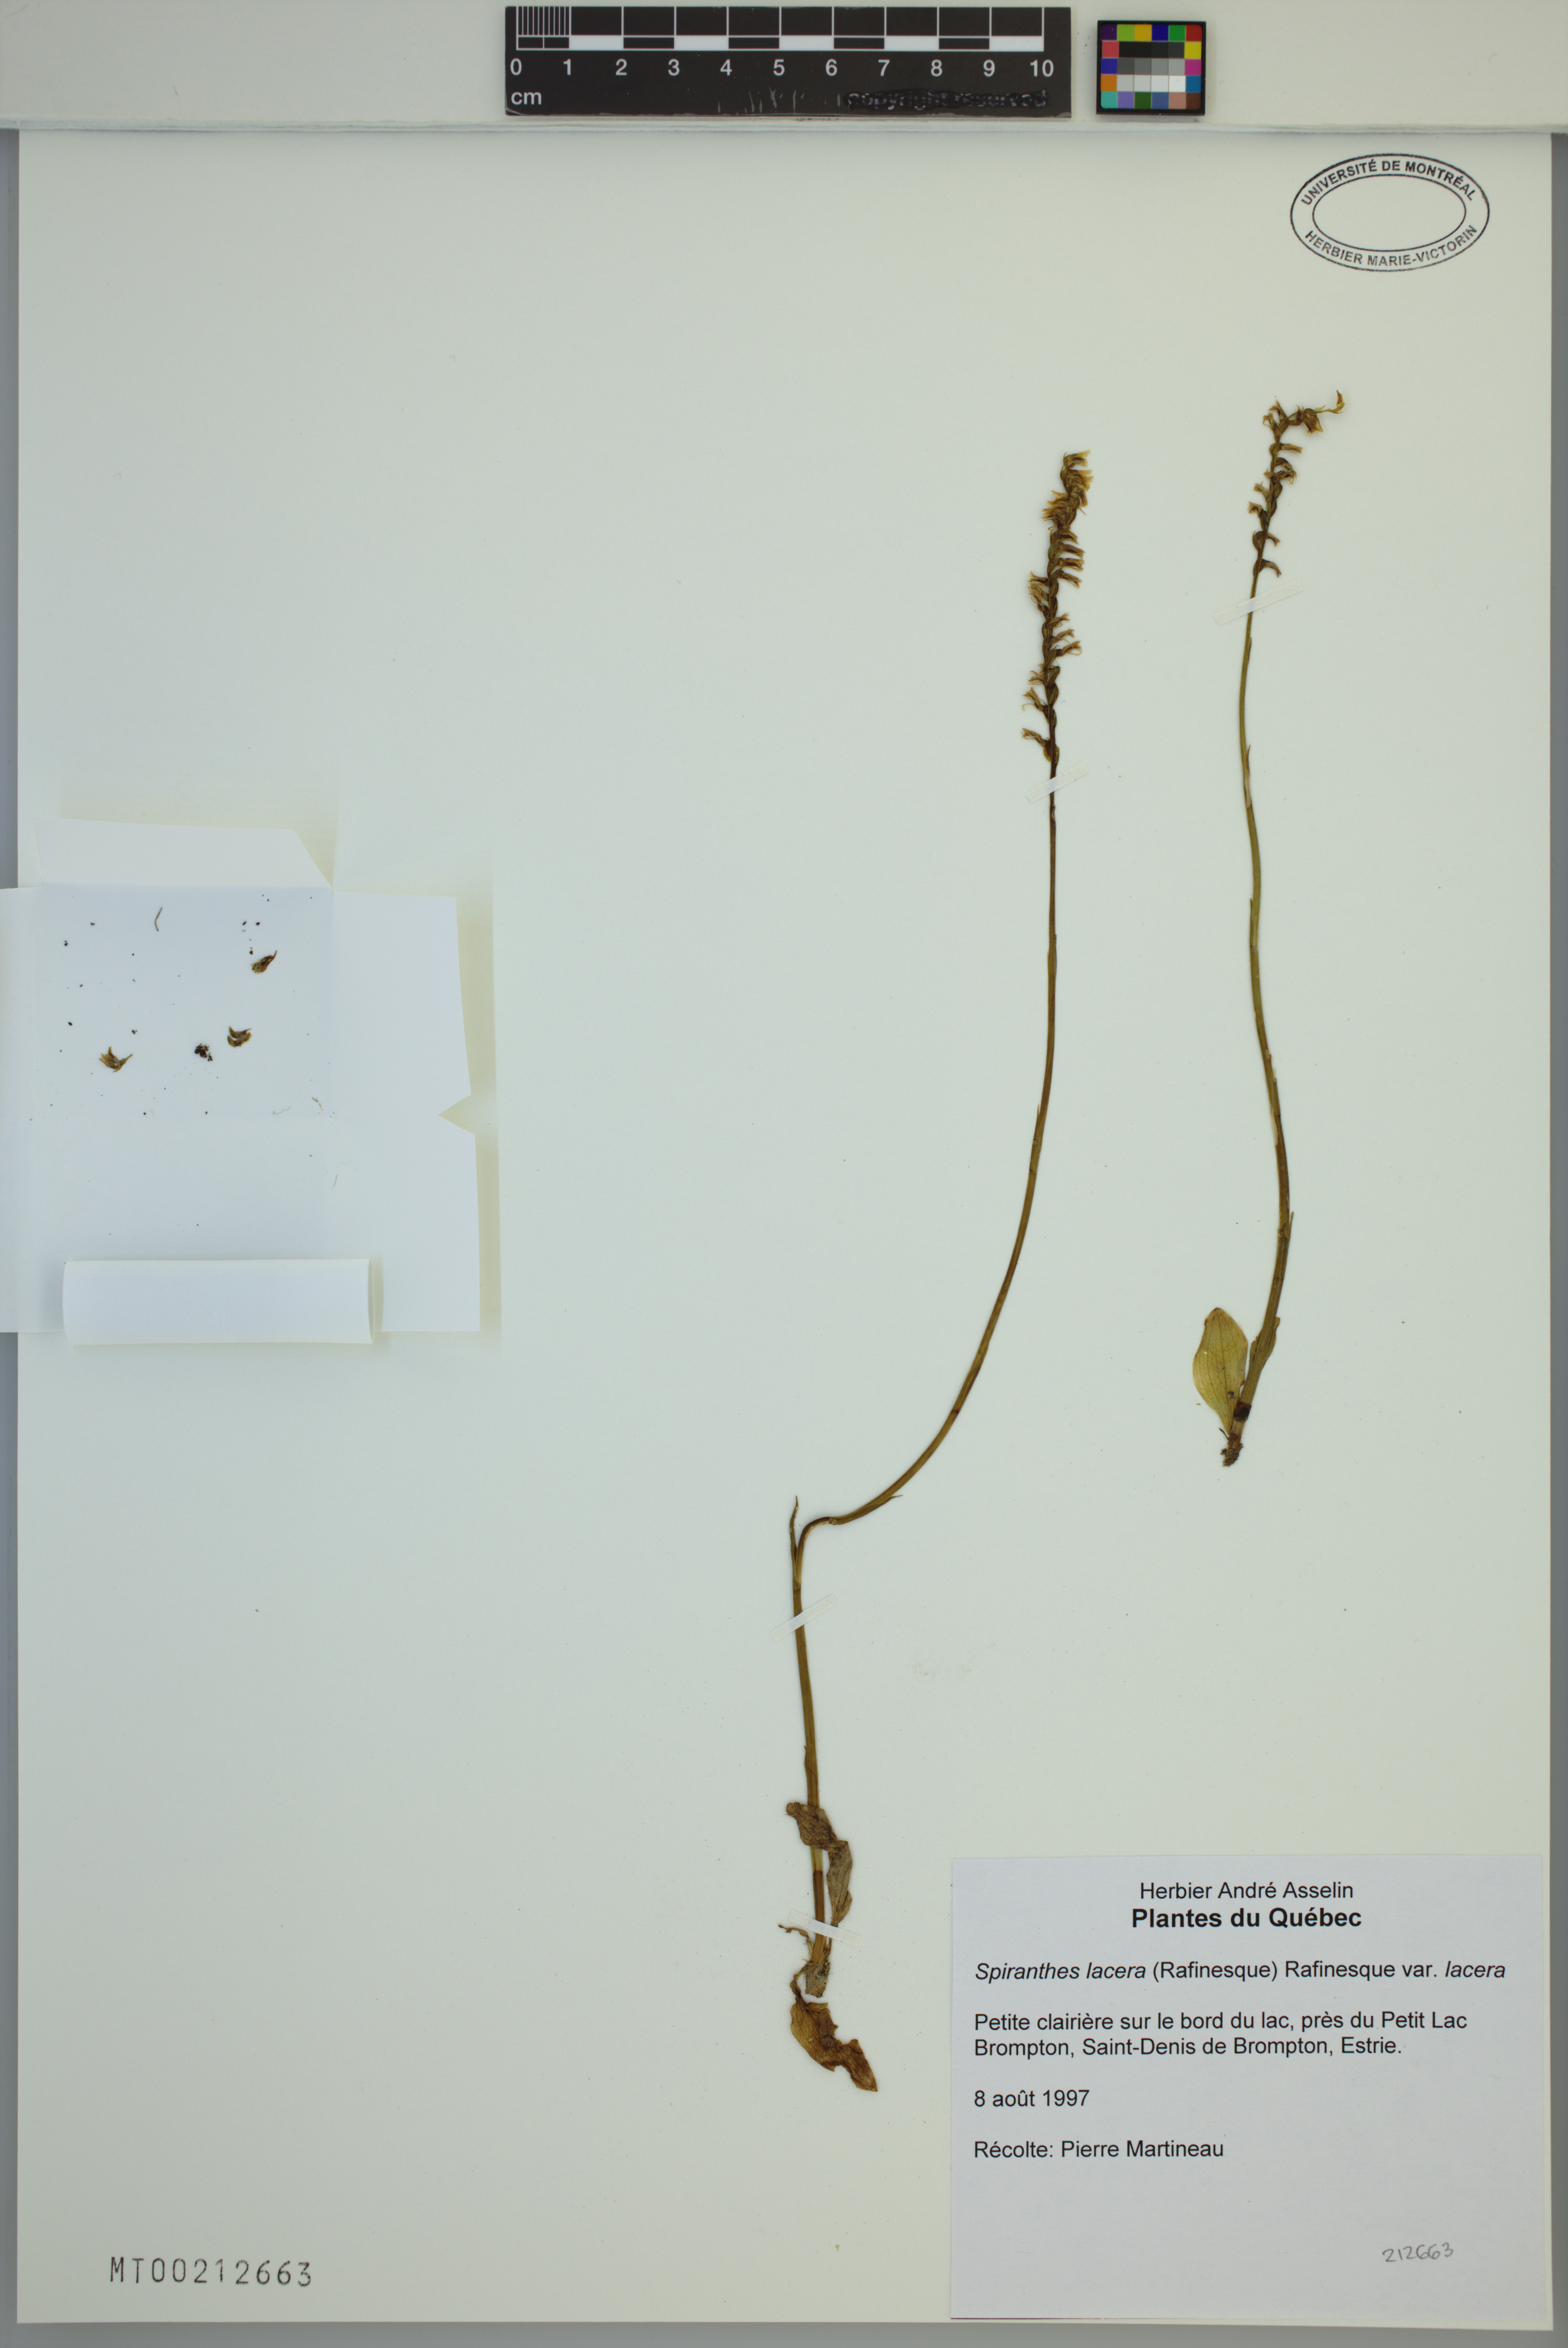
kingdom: Plantae
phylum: Tracheophyta
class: Liliopsida
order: Asparagales
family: Orchidaceae
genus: Spiranthes
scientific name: Spiranthes lacera
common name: Northern slender ladies'-tresses
